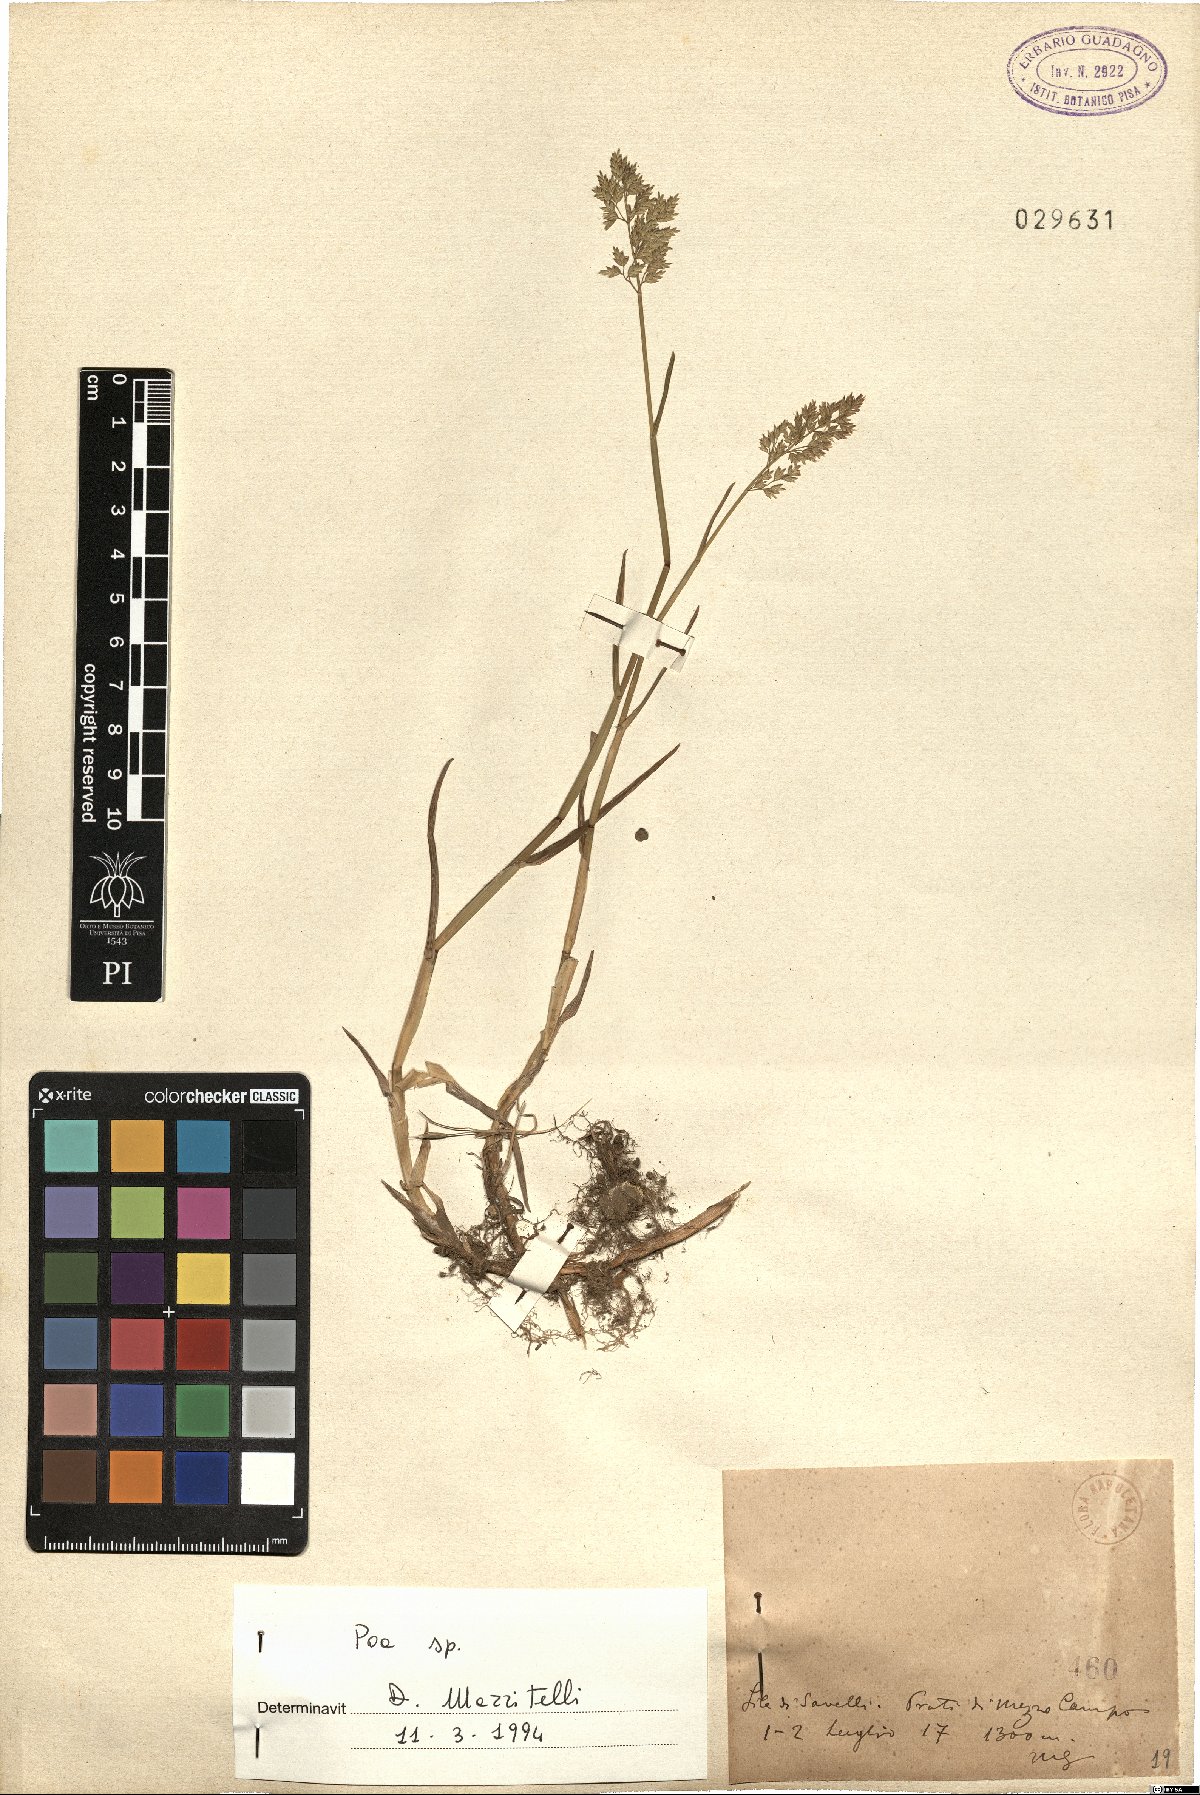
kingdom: Plantae
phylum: Tracheophyta
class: Liliopsida
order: Poales
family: Poaceae
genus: Poa
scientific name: Poa
